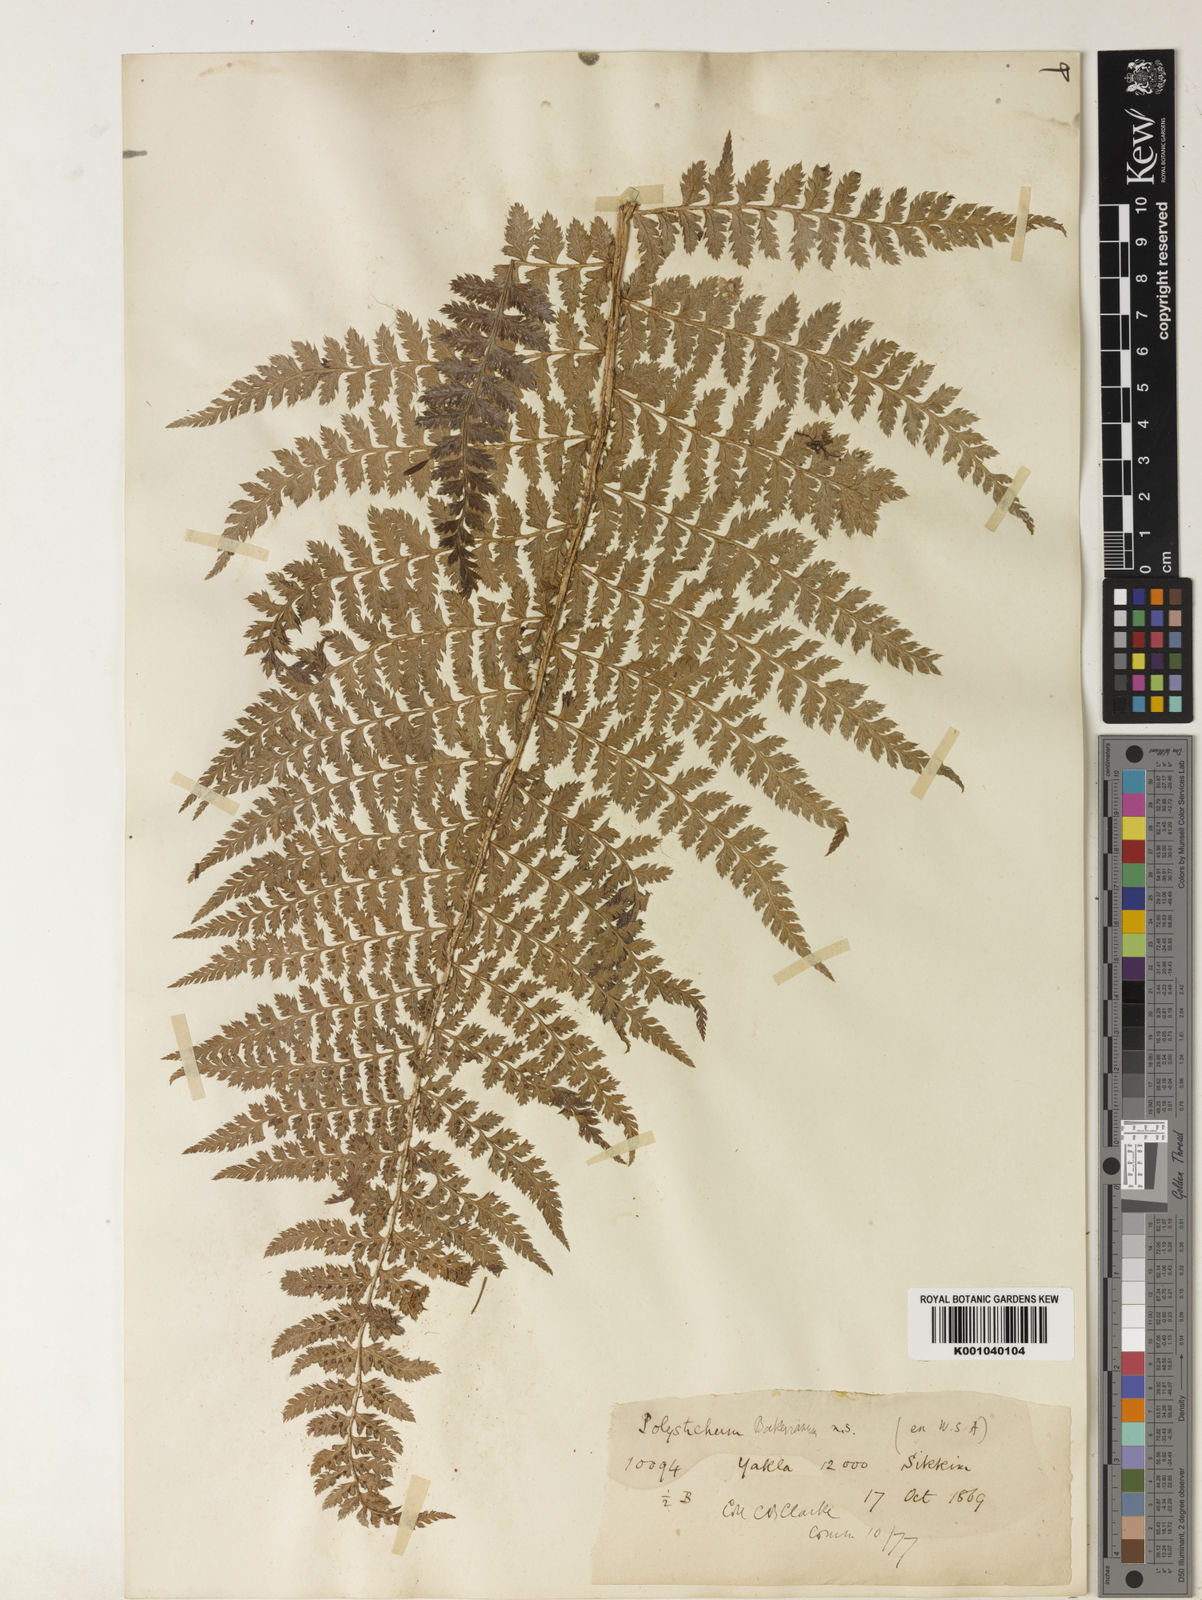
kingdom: Plantae
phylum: Tracheophyta
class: Polypodiopsida
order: Polypodiales
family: Dryopteridaceae
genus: Polystichum
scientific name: Polystichum bakerianum
